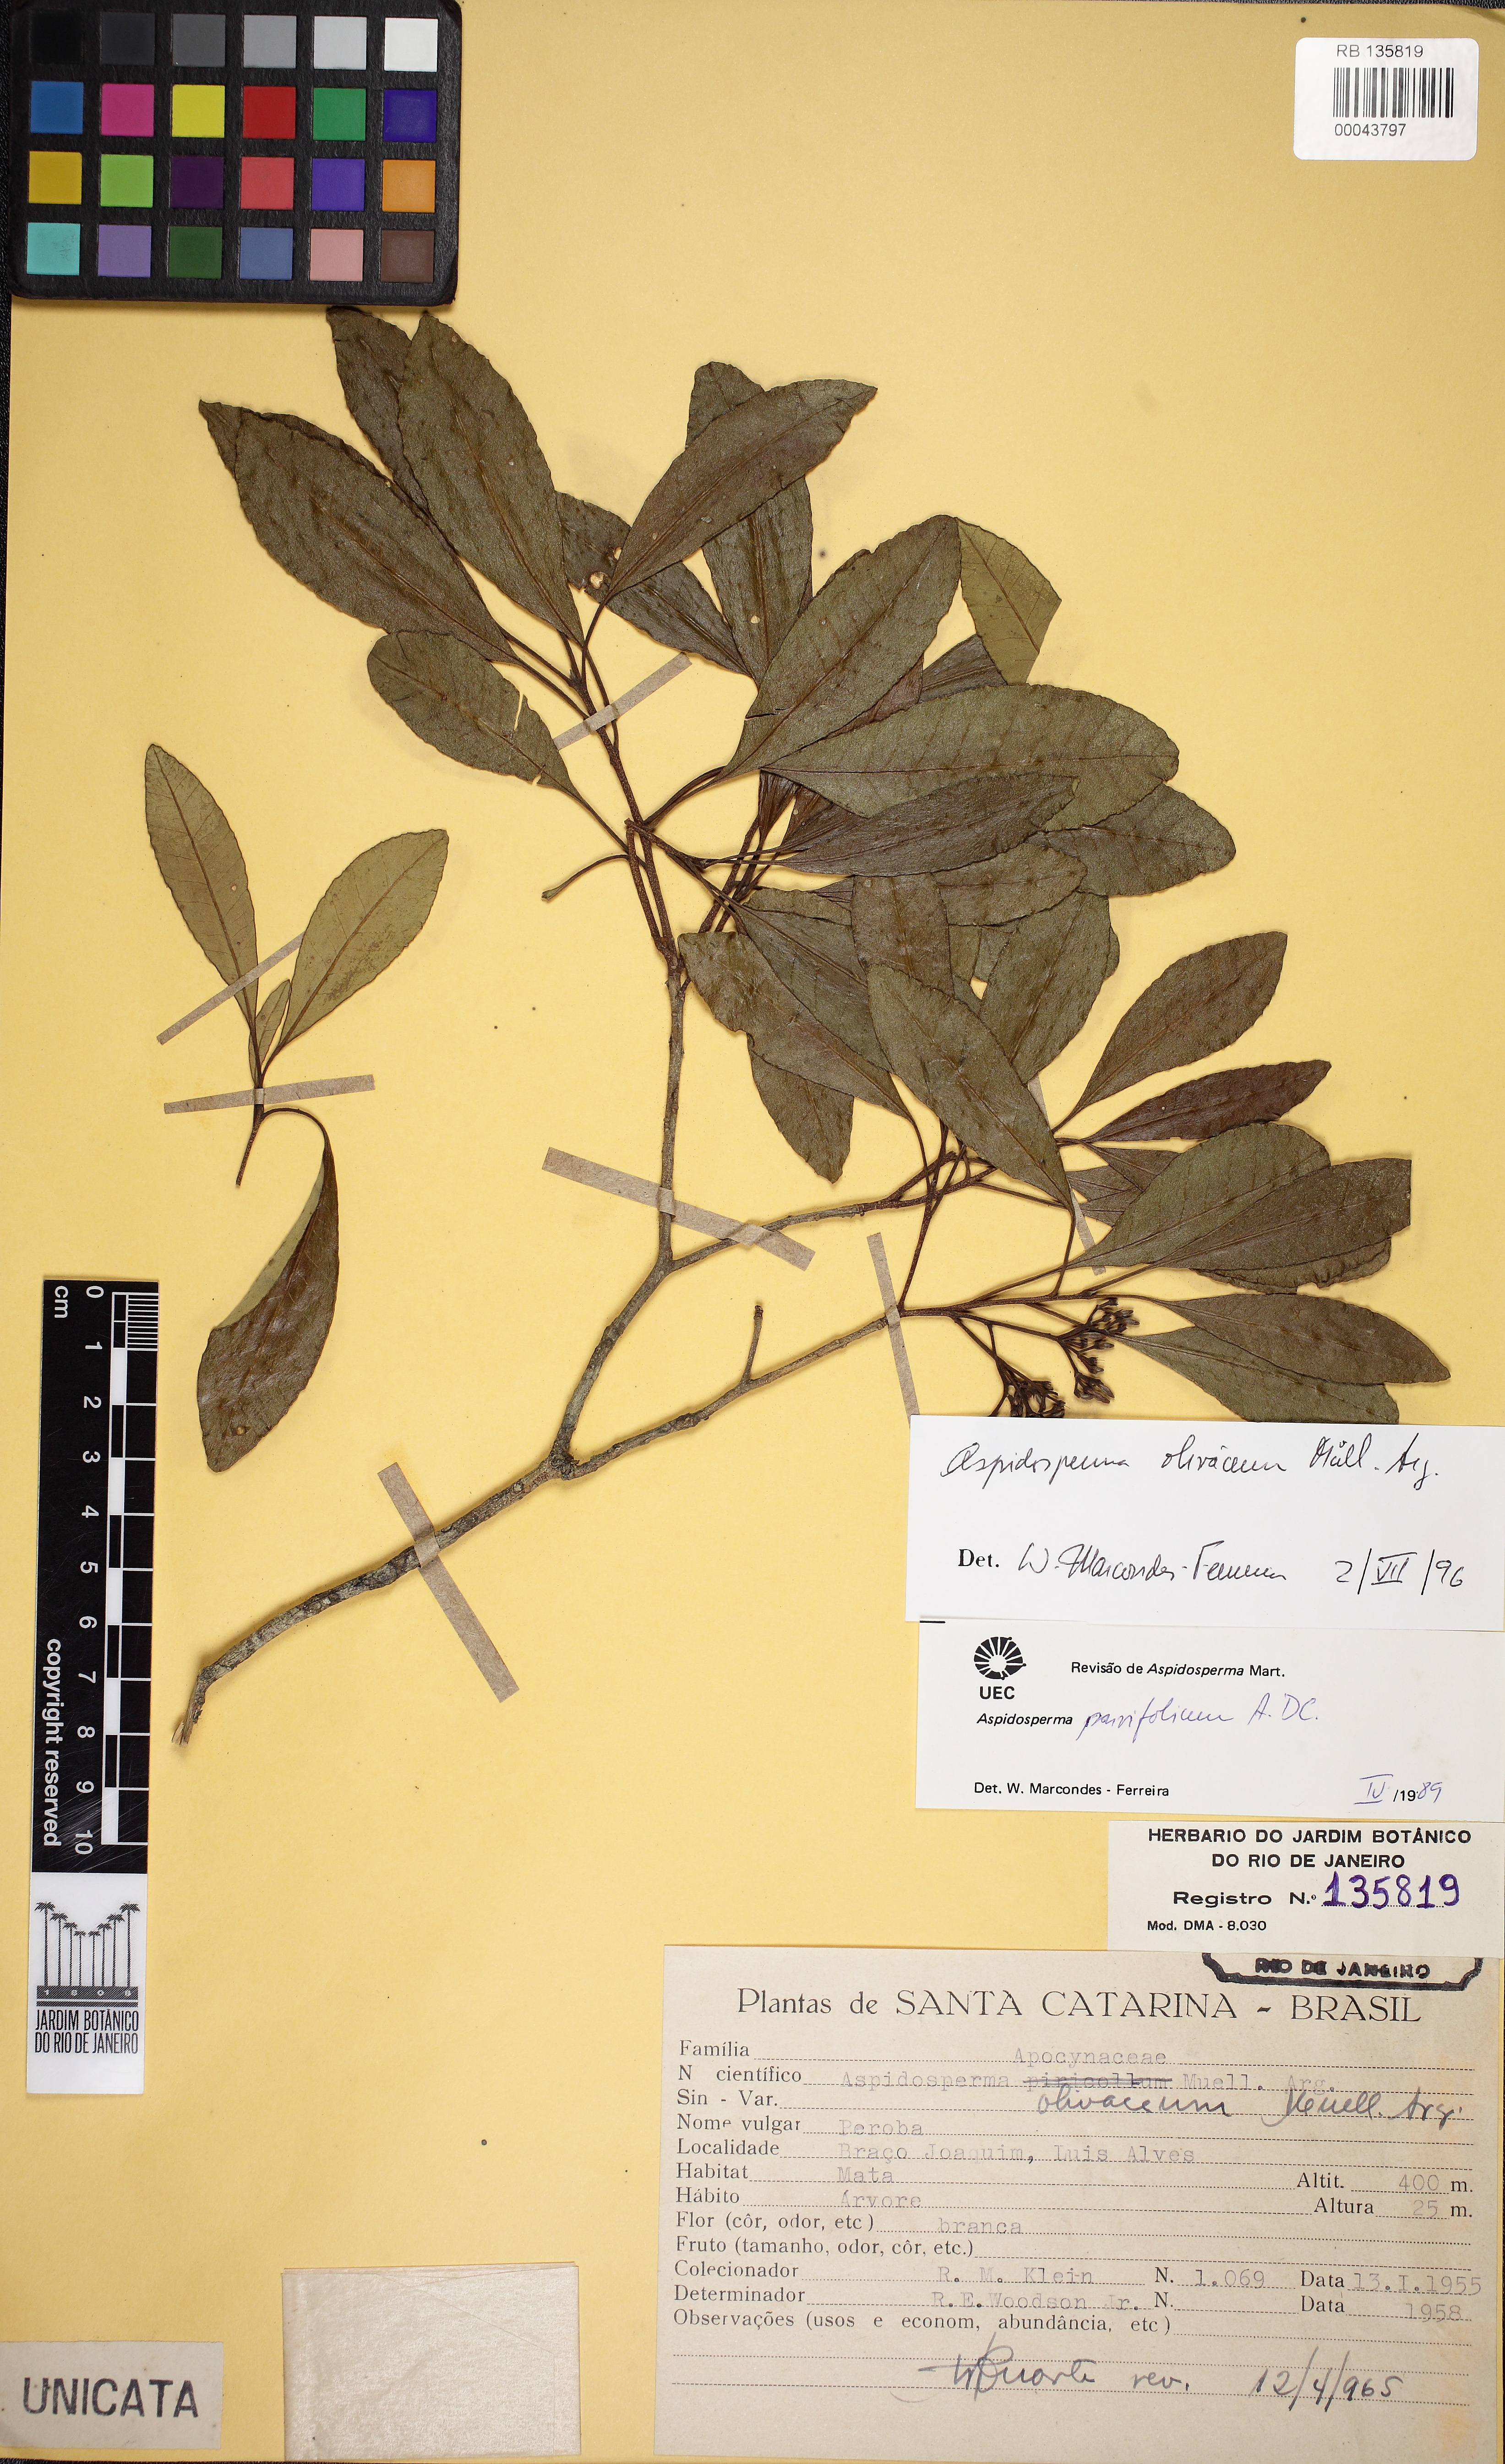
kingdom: Plantae
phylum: Tracheophyta
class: Magnoliopsida
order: Gentianales
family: Apocynaceae
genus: Aspidosperma
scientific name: Aspidosperma olivaceum
